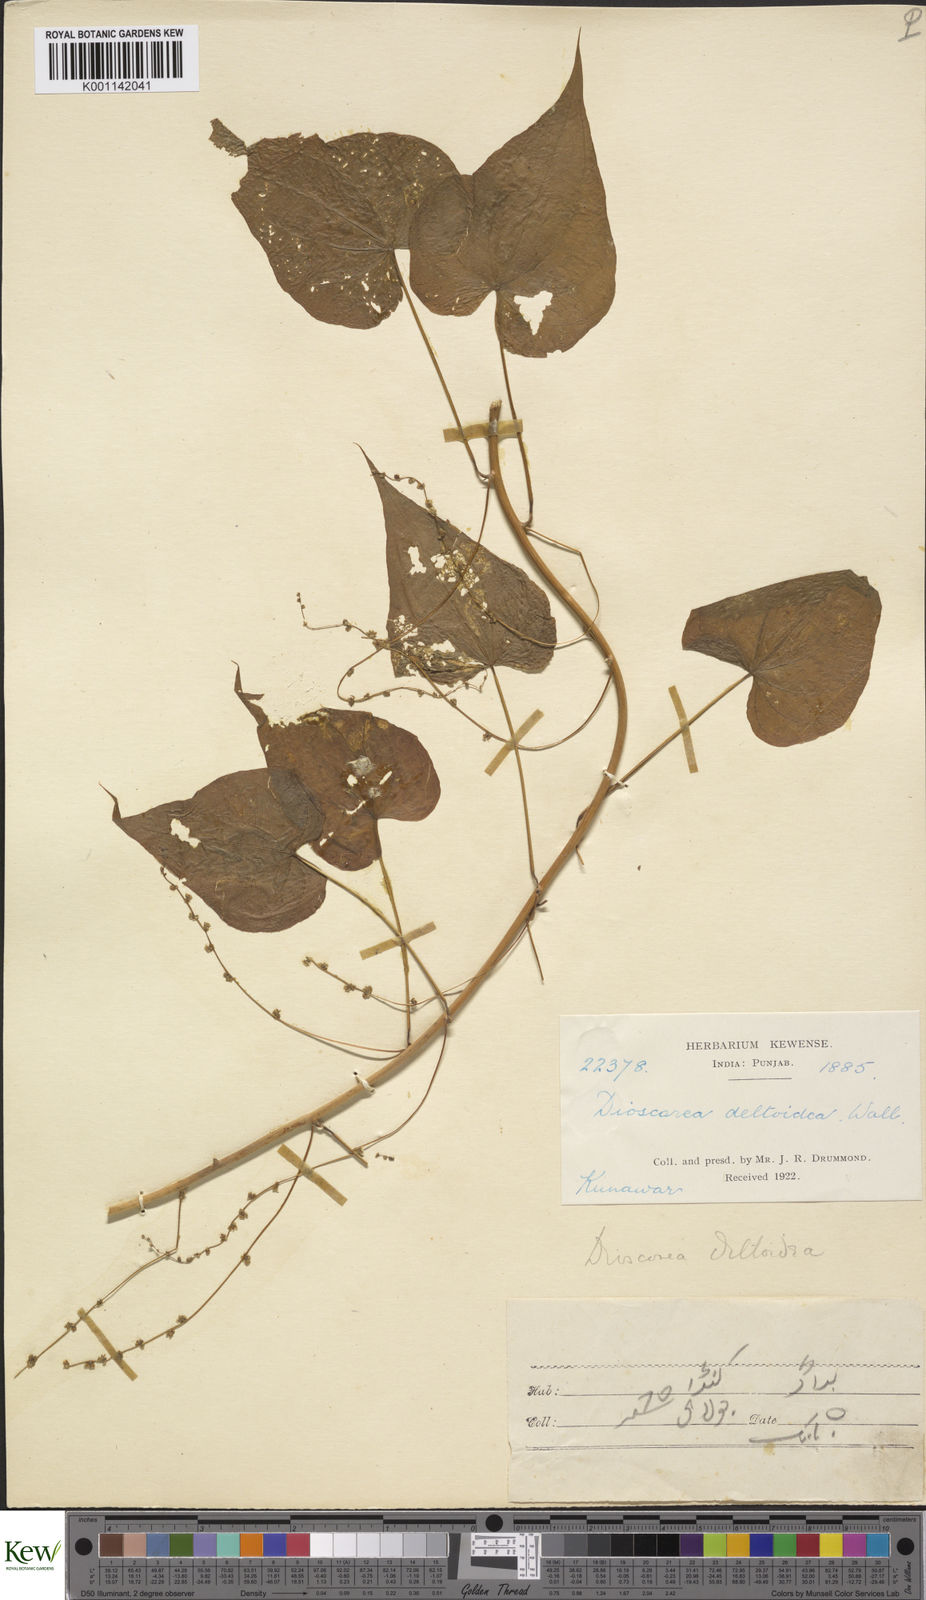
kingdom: Plantae
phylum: Tracheophyta
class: Liliopsida
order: Dioscoreales
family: Dioscoreaceae
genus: Dioscorea
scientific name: Dioscorea deltoidea
